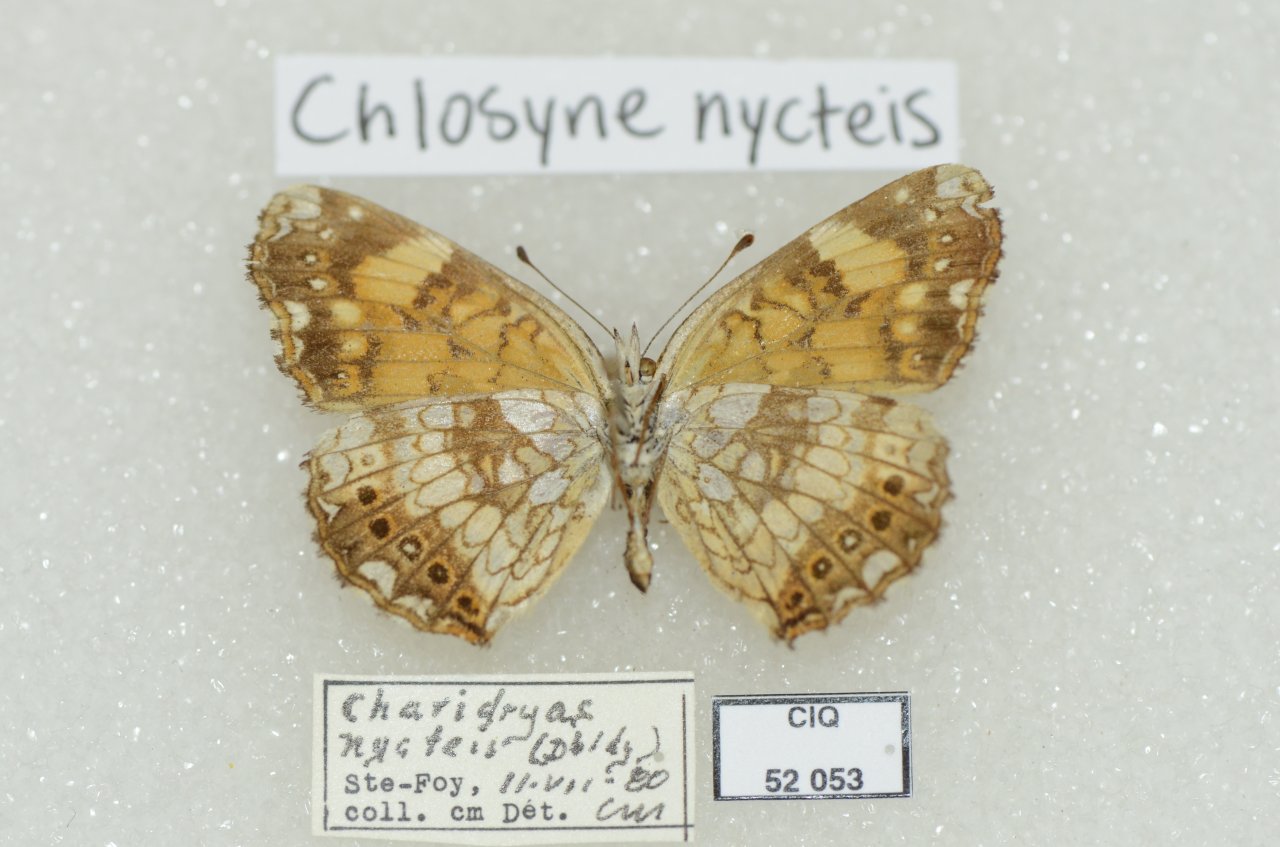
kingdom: Animalia
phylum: Arthropoda
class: Insecta
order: Lepidoptera
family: Nymphalidae
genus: Chlosyne
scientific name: Chlosyne nycteis
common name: Silvery Checkerspot
